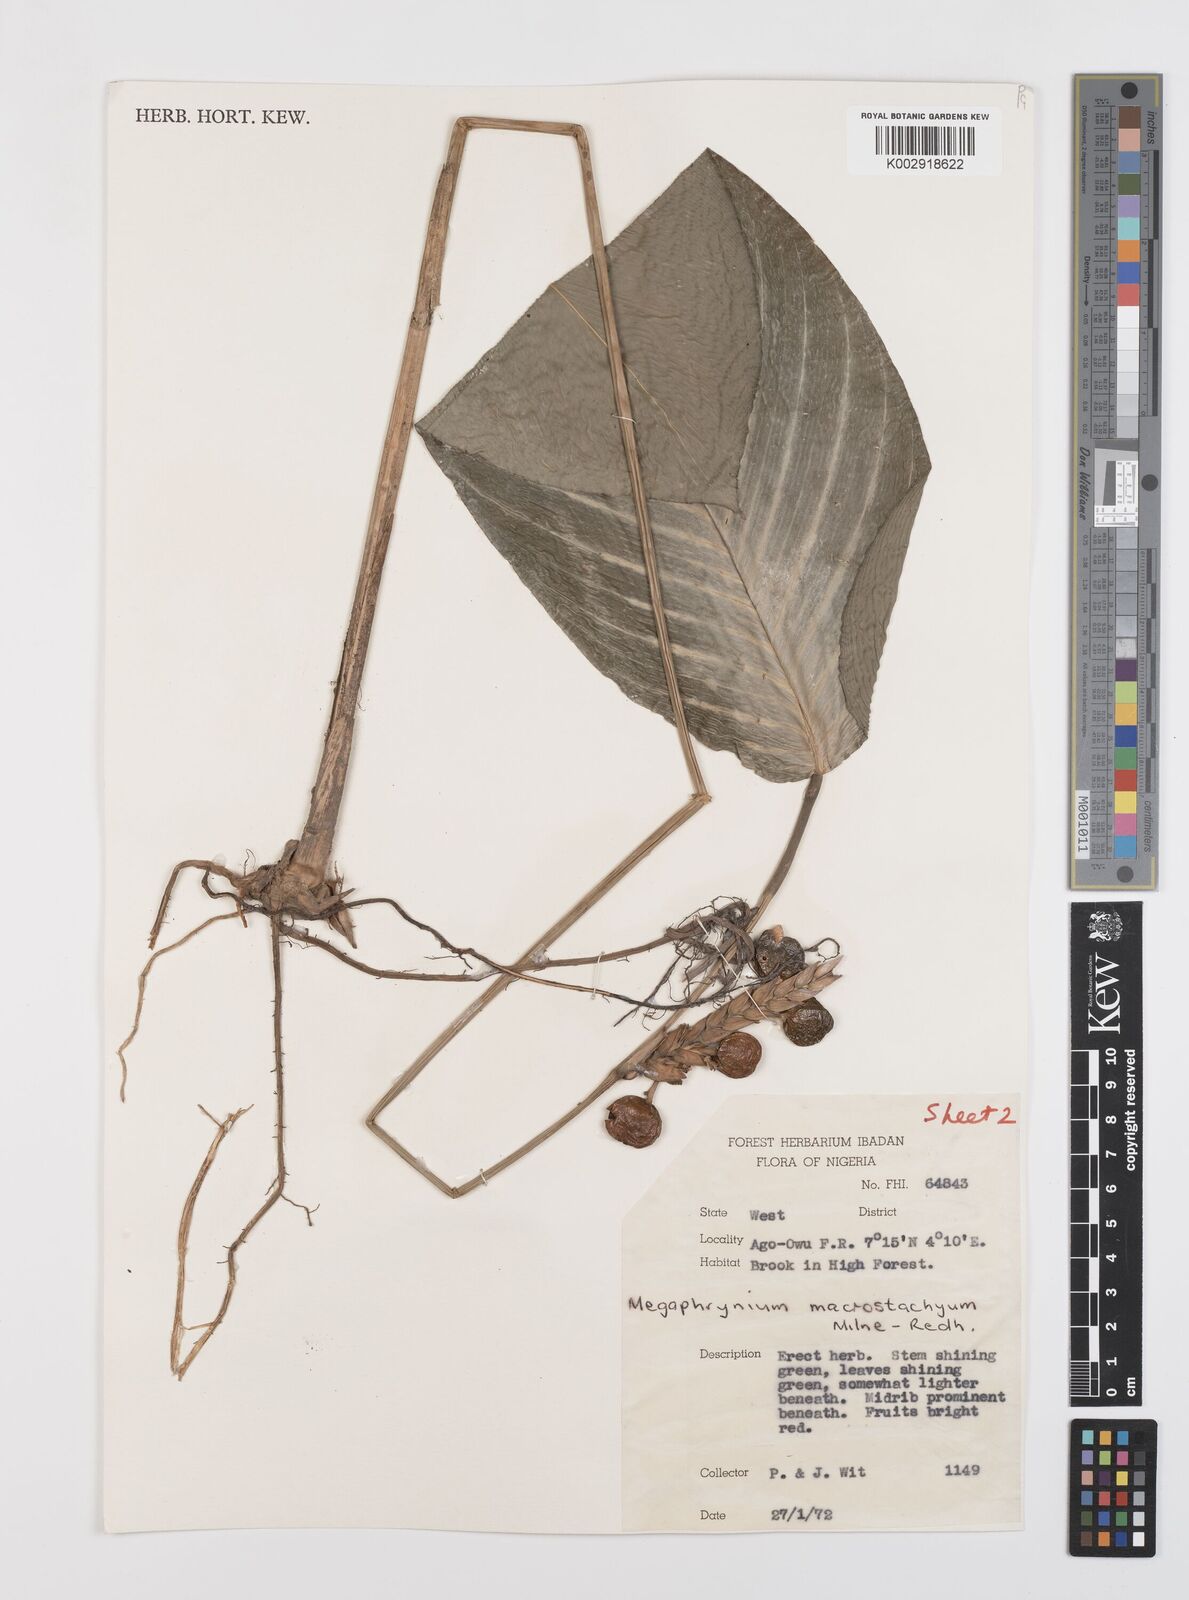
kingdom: Plantae
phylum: Tracheophyta
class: Liliopsida
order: Zingiberales
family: Marantaceae
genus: Sarcophrynium
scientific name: Sarcophrynium brachystachyum
